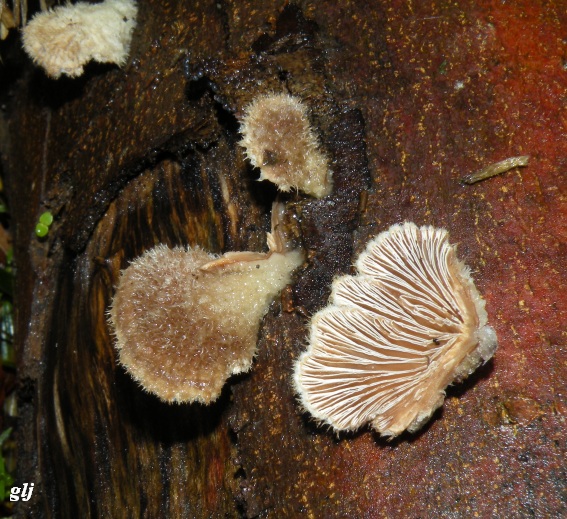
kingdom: Fungi
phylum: Basidiomycota
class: Agaricomycetes
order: Agaricales
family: Schizophyllaceae
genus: Schizophyllum
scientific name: Schizophyllum commune
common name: kløvblad
